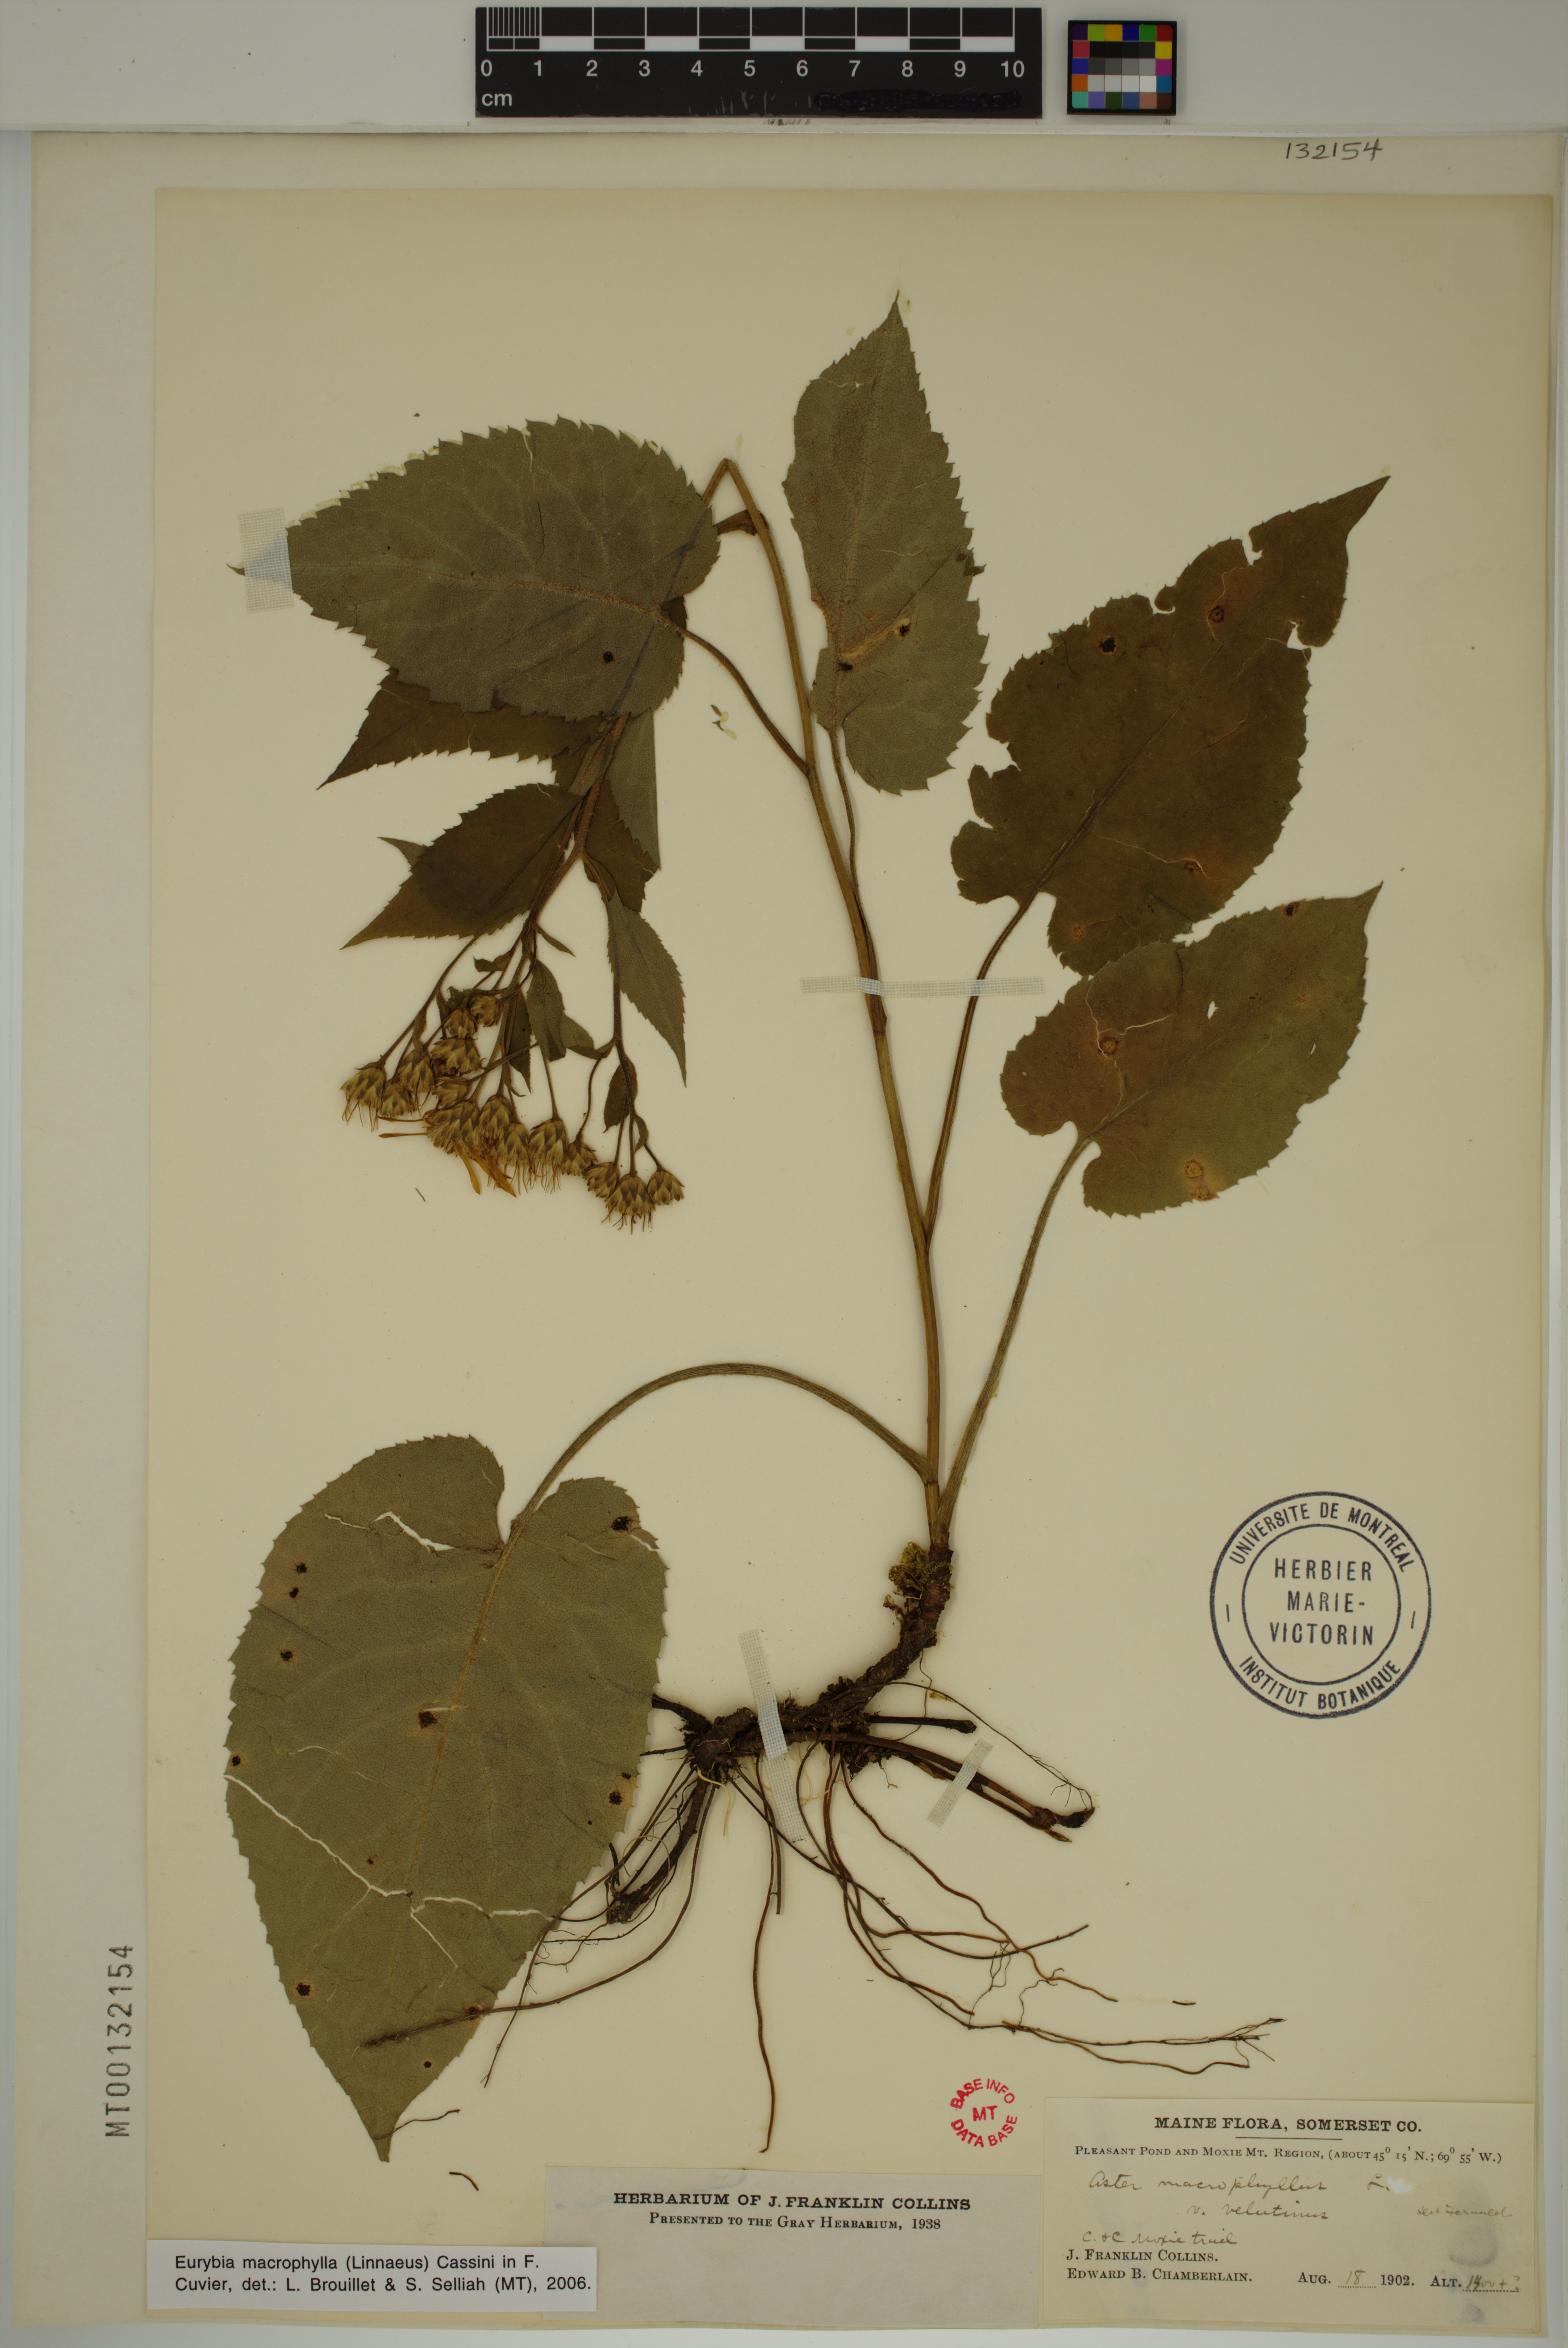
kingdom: Plantae
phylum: Tracheophyta
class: Magnoliopsida
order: Asterales
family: Asteraceae
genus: Eurybia
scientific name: Eurybia macrophylla
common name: Big-leaved aster
